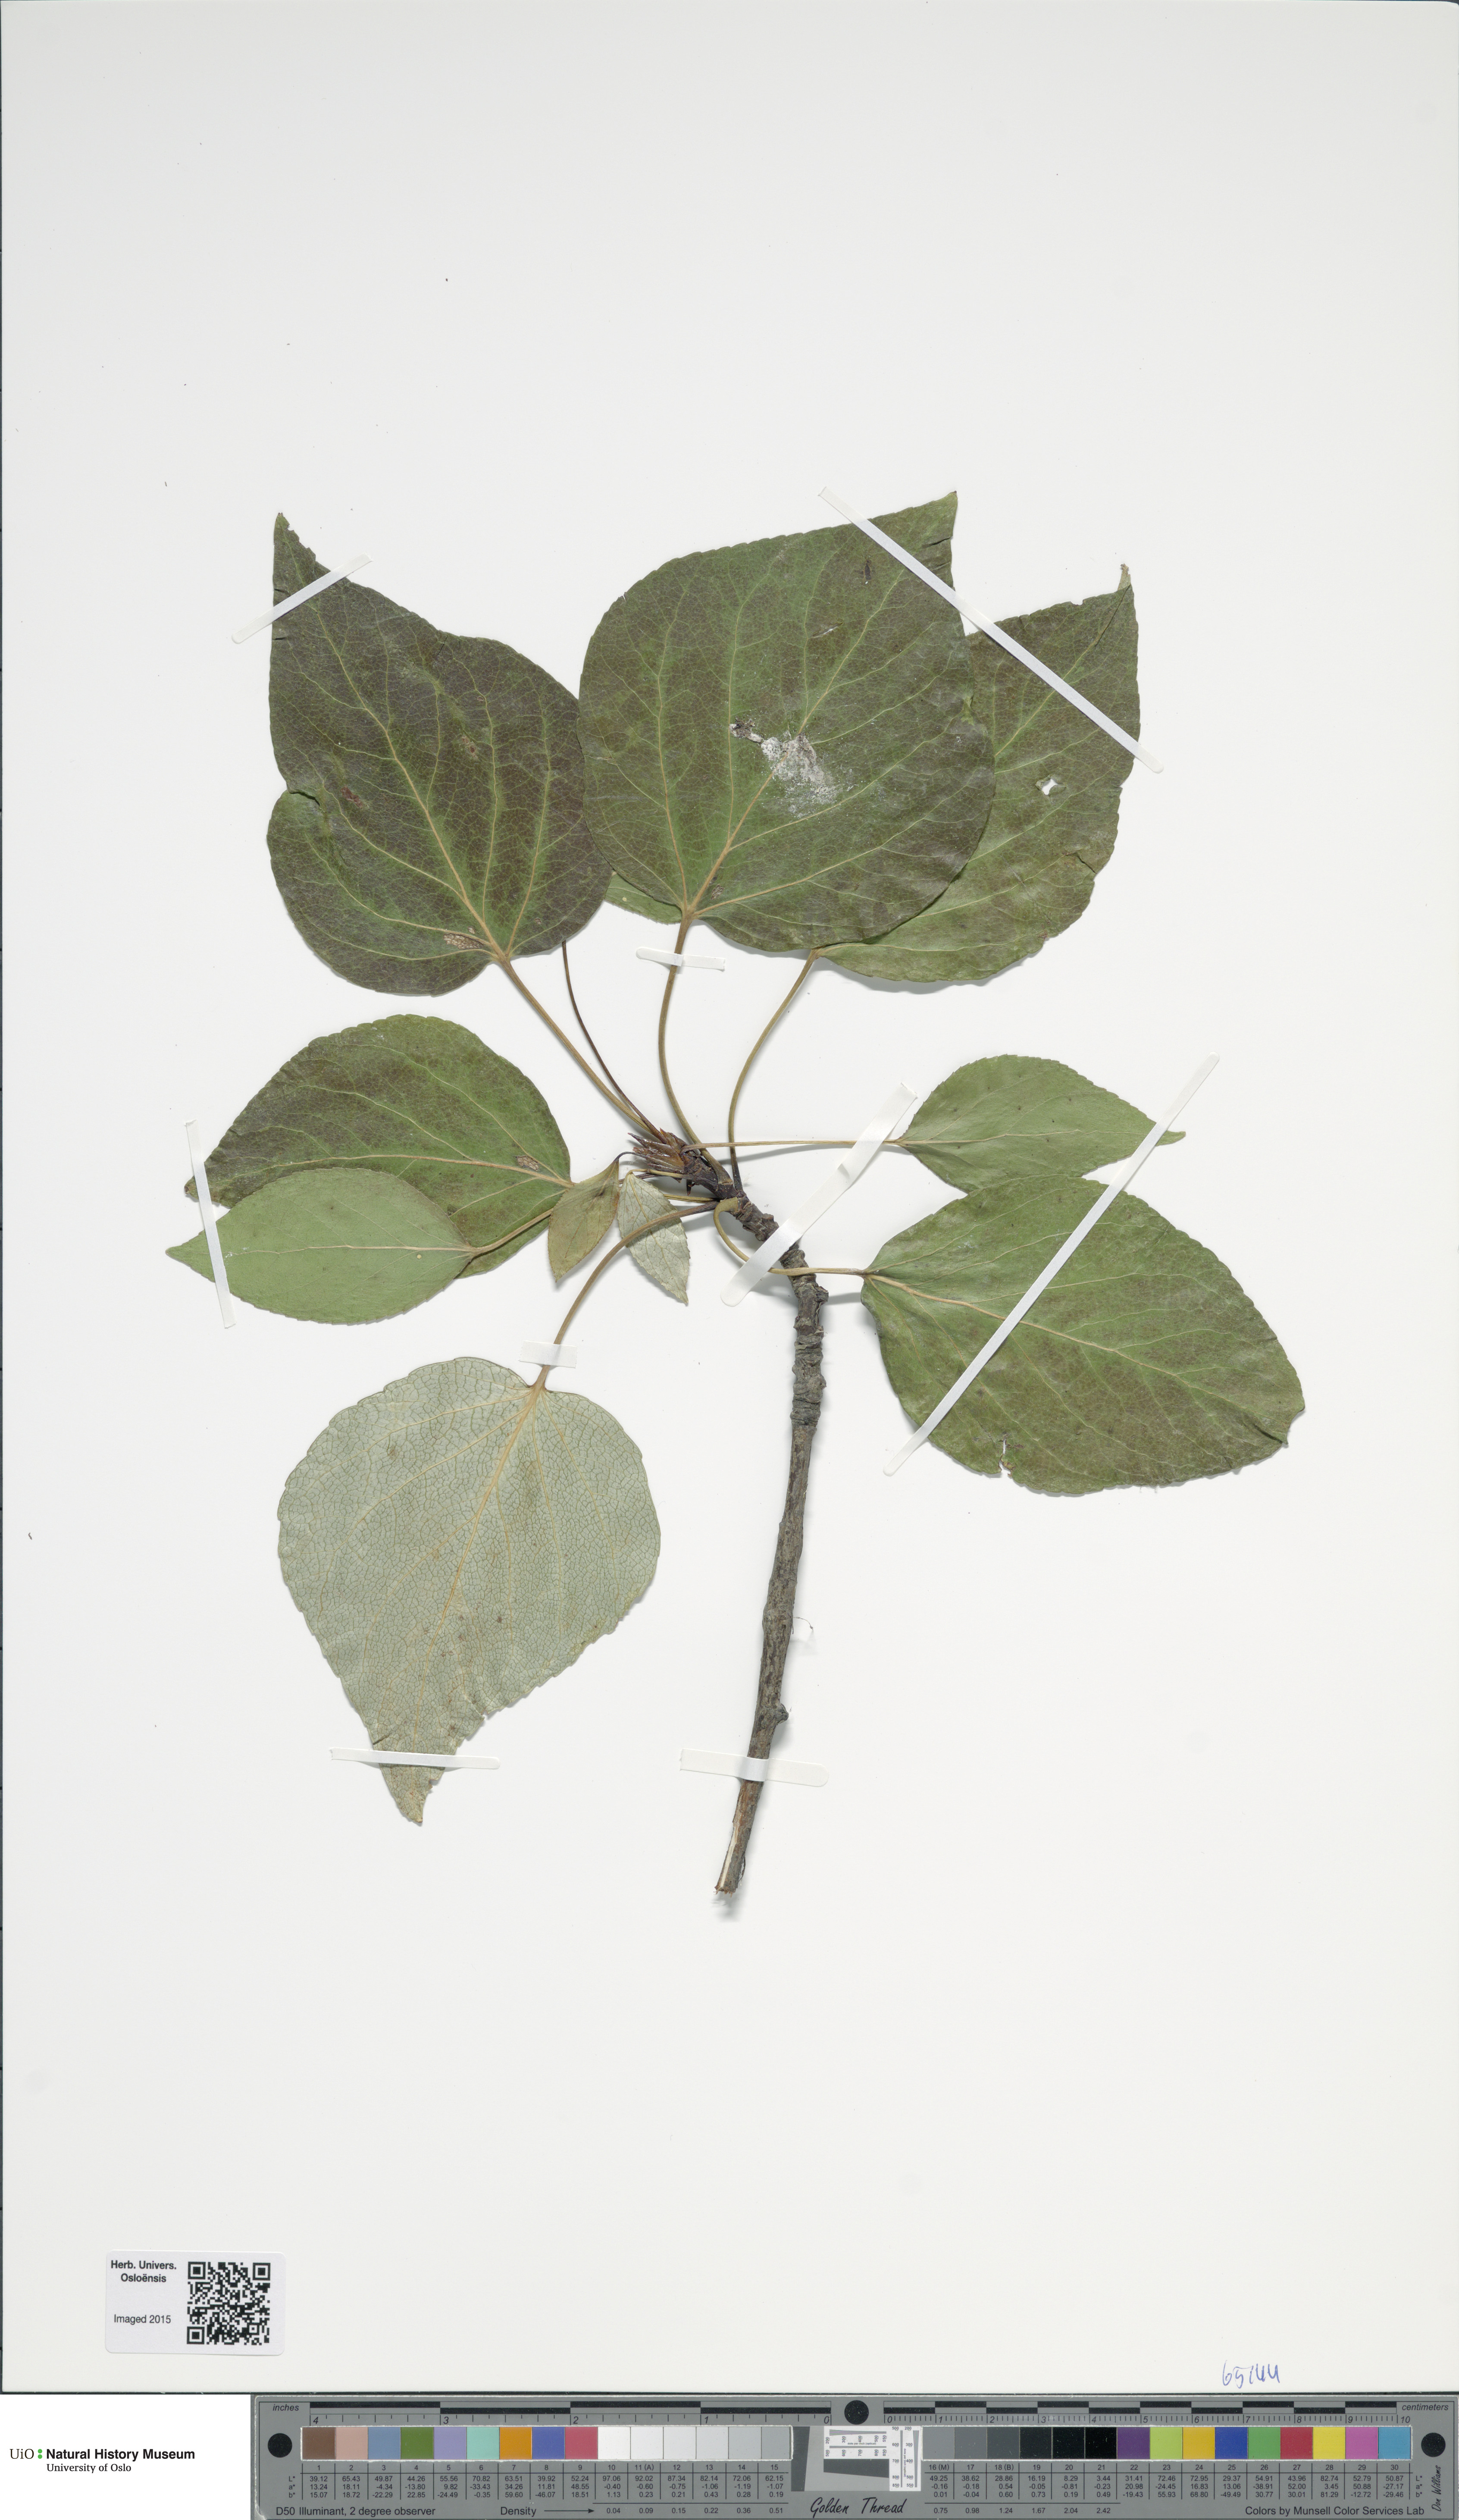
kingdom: Plantae
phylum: Tracheophyta
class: Magnoliopsida
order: Malpighiales
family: Salicaceae
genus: Populus
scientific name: Populus balsamifera
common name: Balsam poplar
